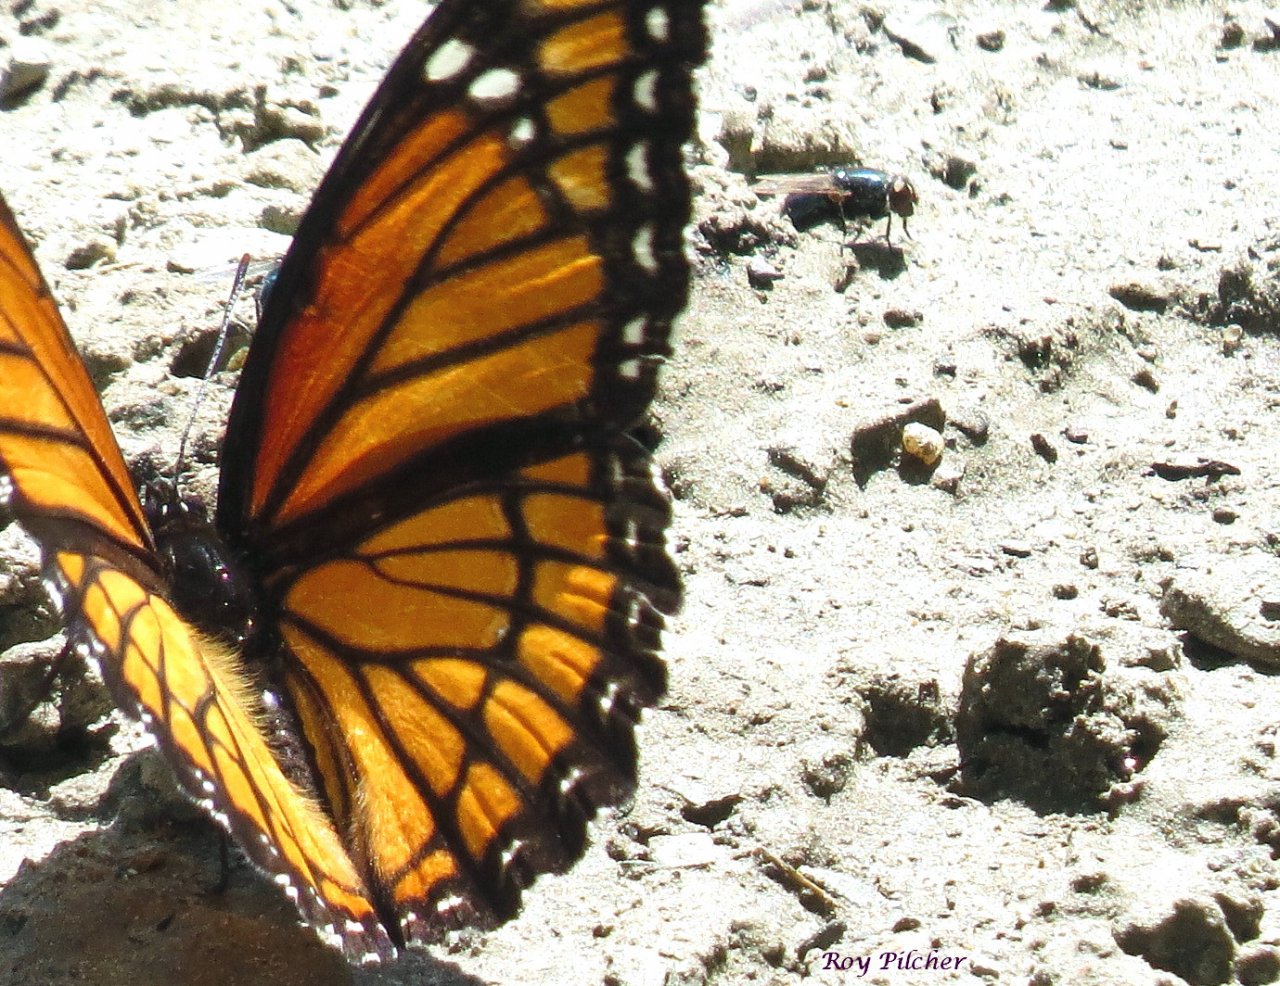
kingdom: Animalia
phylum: Arthropoda
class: Insecta
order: Lepidoptera
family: Nymphalidae
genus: Limenitis
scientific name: Limenitis archippus
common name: Viceroy
